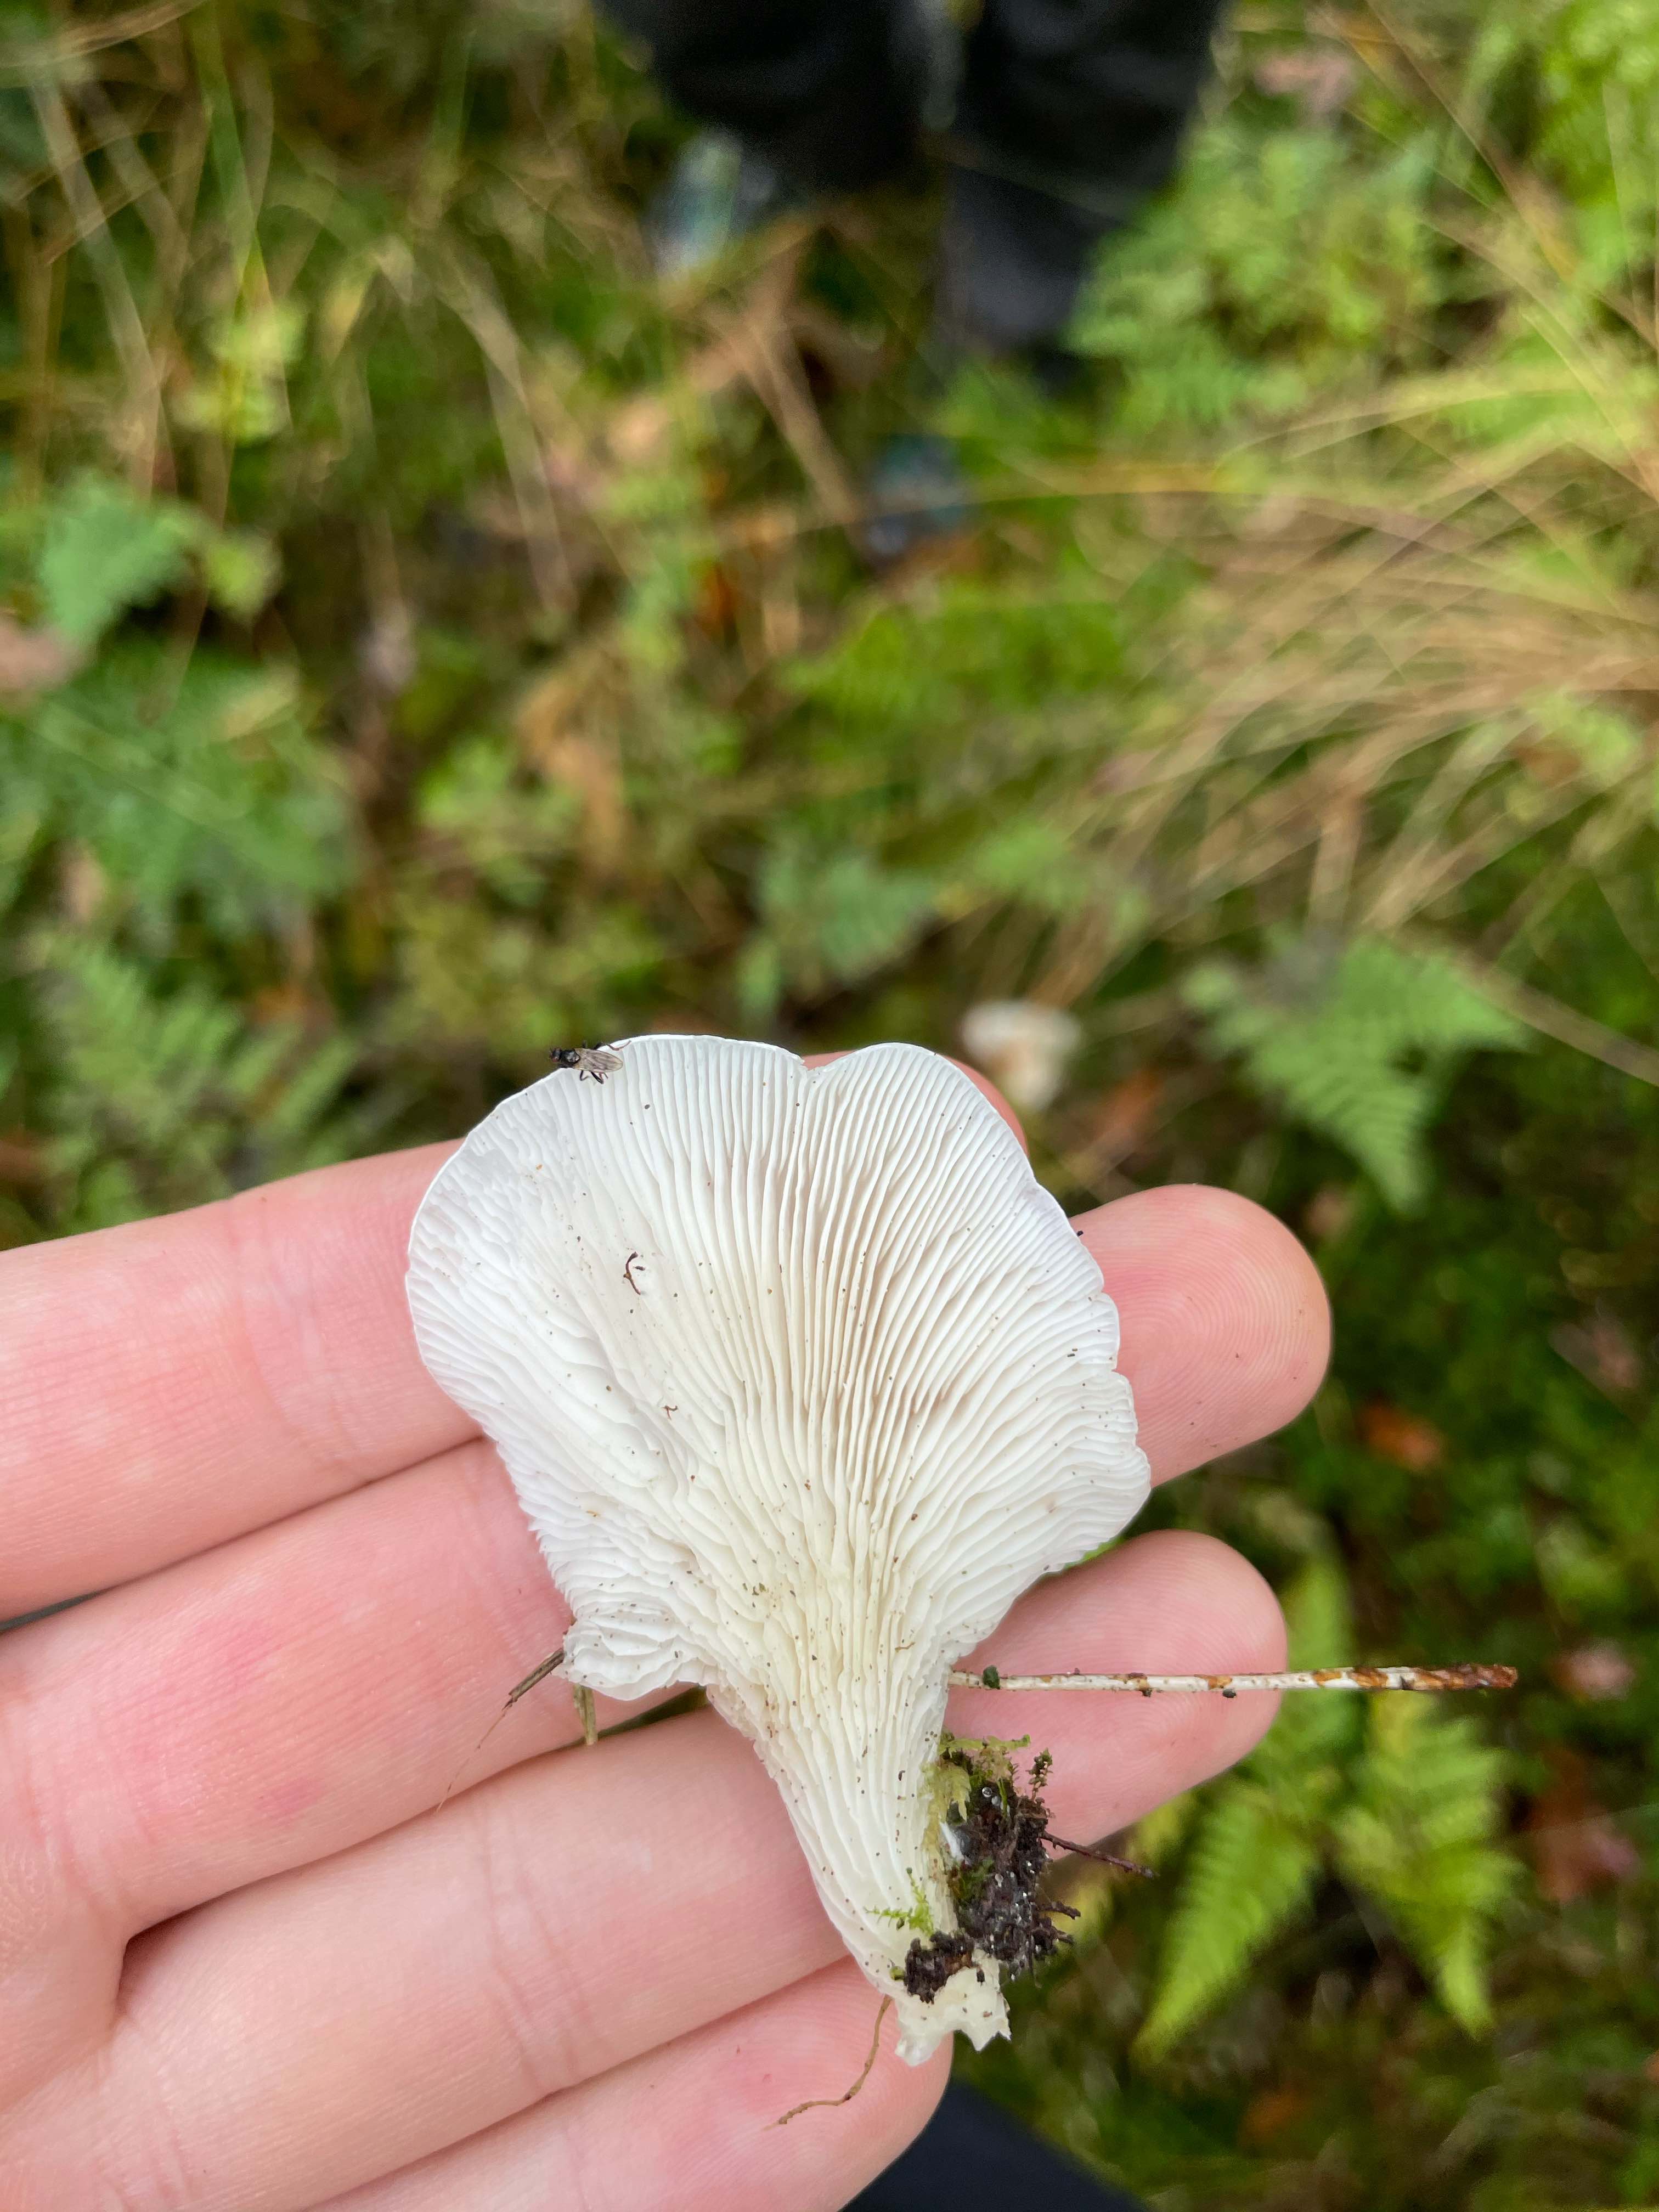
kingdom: Fungi
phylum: Basidiomycota
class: Agaricomycetes
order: Agaricales
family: Marasmiaceae
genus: Pleurocybella
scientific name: Pleurocybella porrigens
